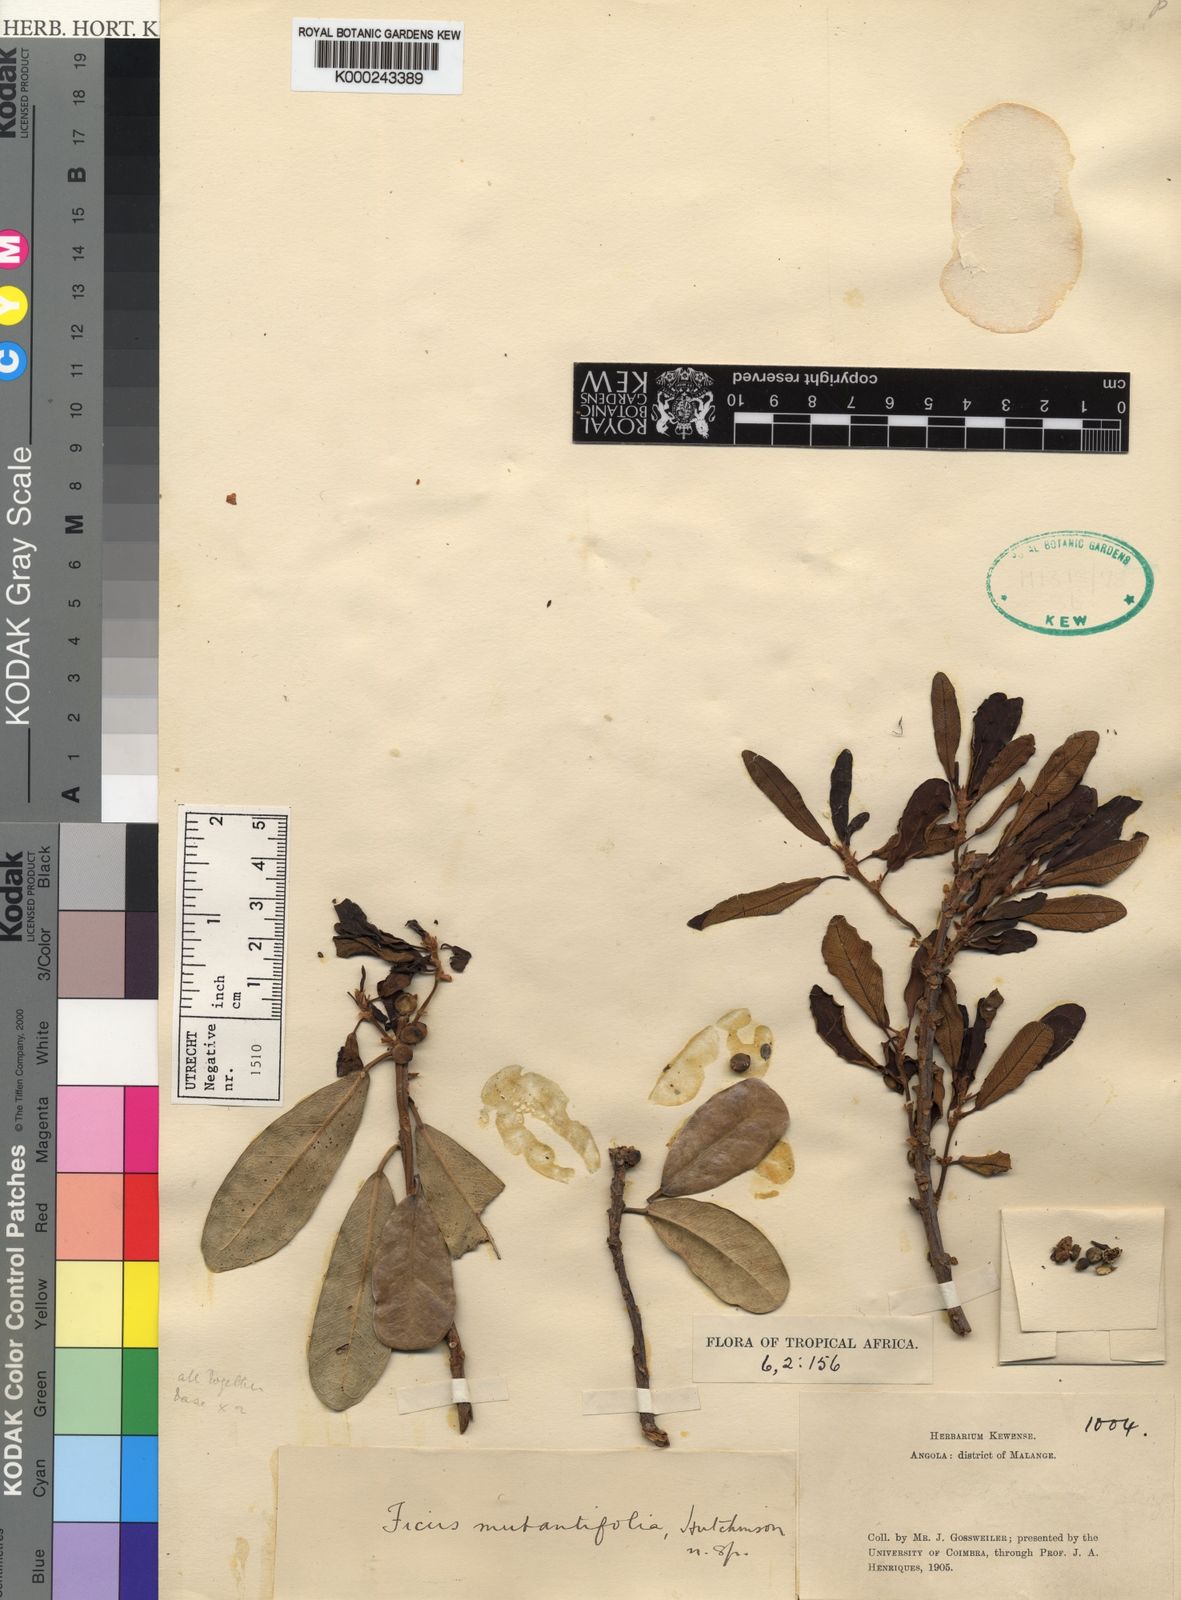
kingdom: Plantae
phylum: Tracheophyta
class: Magnoliopsida
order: Rosales
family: Moraceae
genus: Ficus
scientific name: Ficus lingua
